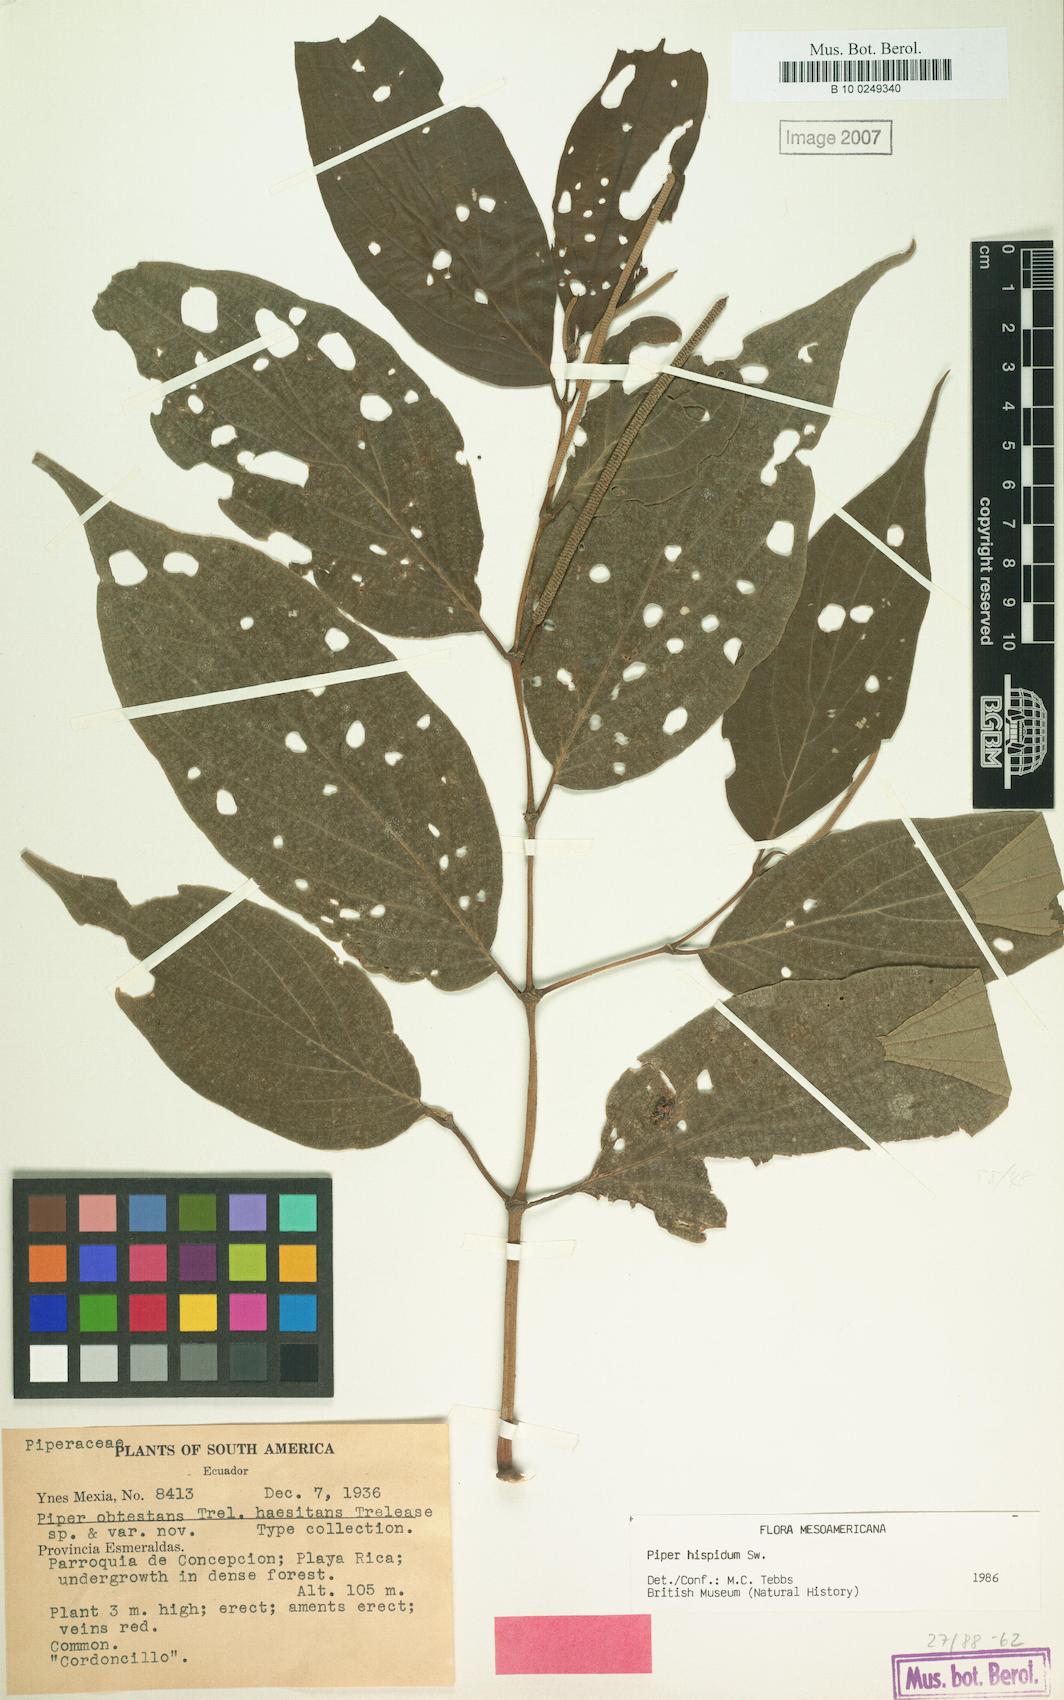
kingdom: Plantae
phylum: Tracheophyta
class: Magnoliopsida
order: Piperales
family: Piperaceae
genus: Piper
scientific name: Piper hispidum
